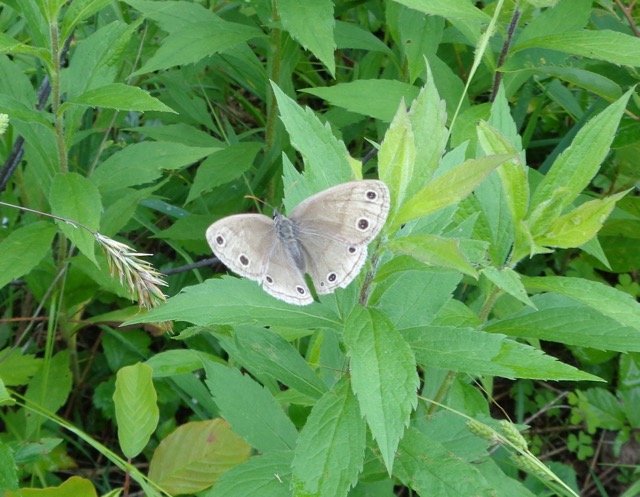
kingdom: Animalia
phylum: Arthropoda
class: Insecta
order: Lepidoptera
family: Nymphalidae
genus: Euptychia
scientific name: Euptychia cymela
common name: Little Wood Satyr
